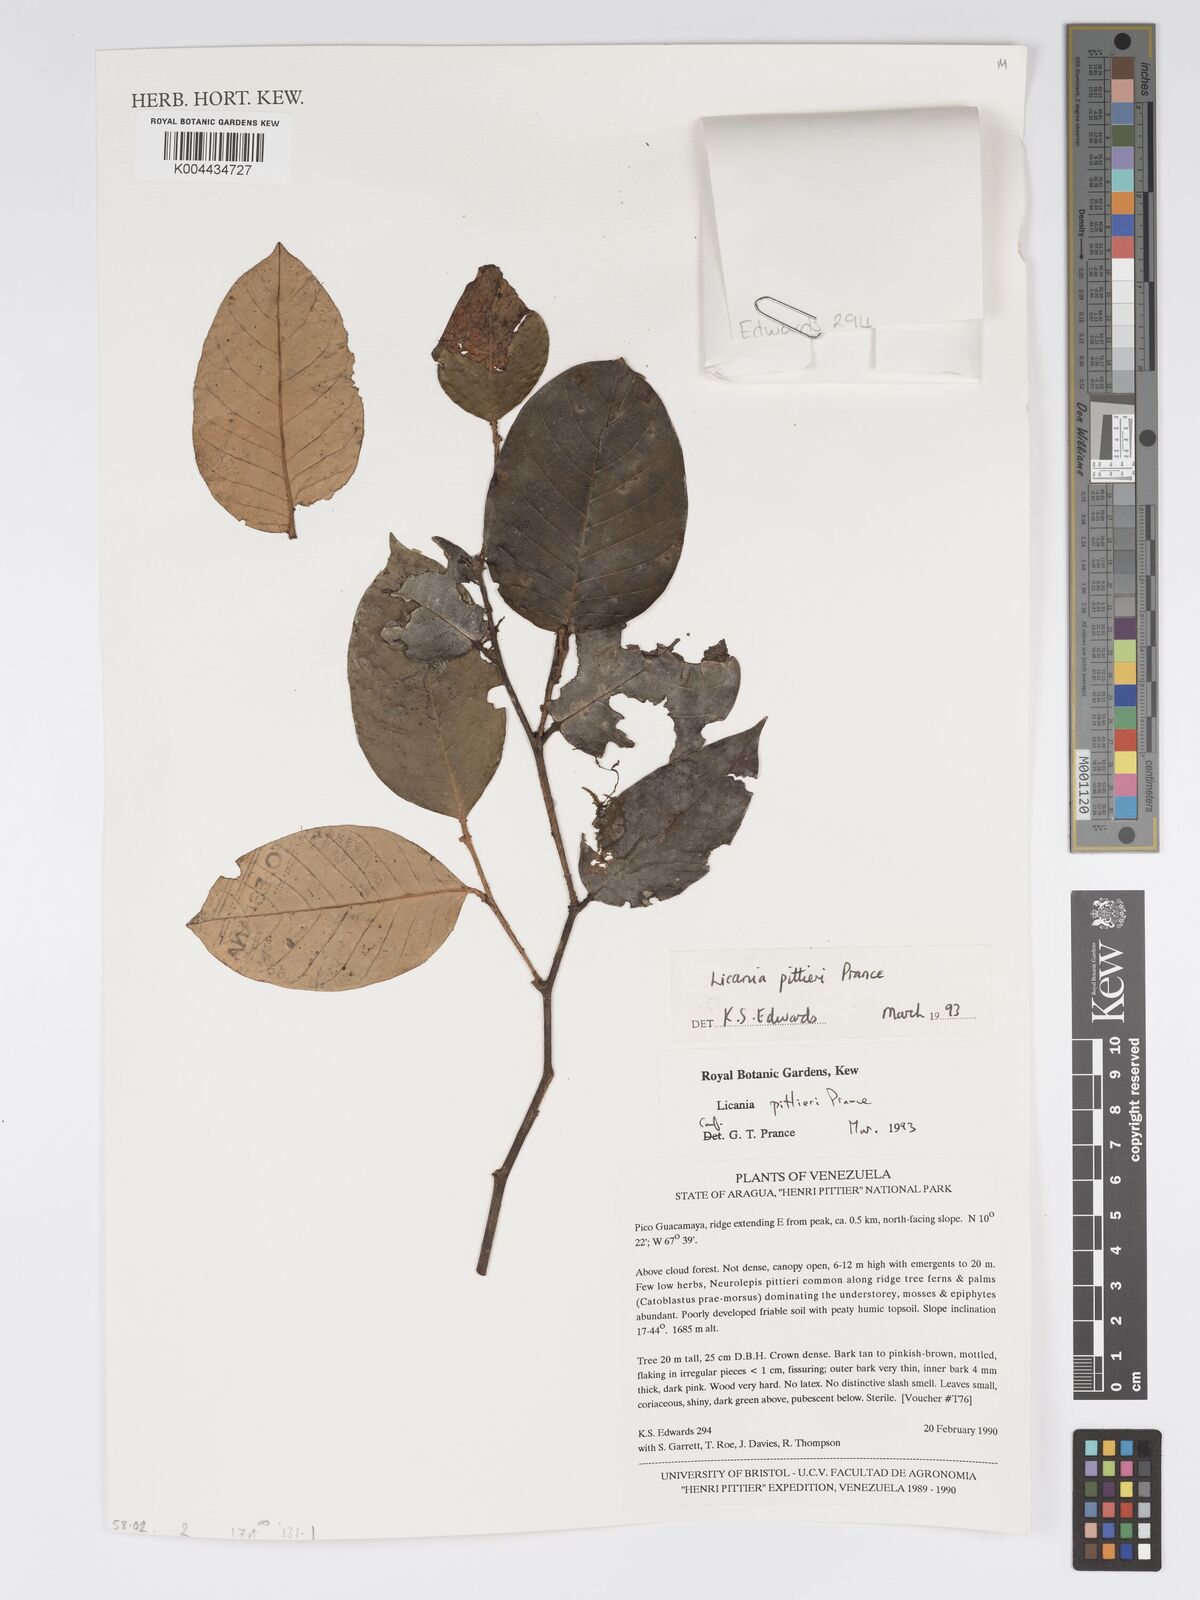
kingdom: Plantae
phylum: Tracheophyta
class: Magnoliopsida
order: Malpighiales
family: Chrysobalanaceae
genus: Licania
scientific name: Licania pittieri
